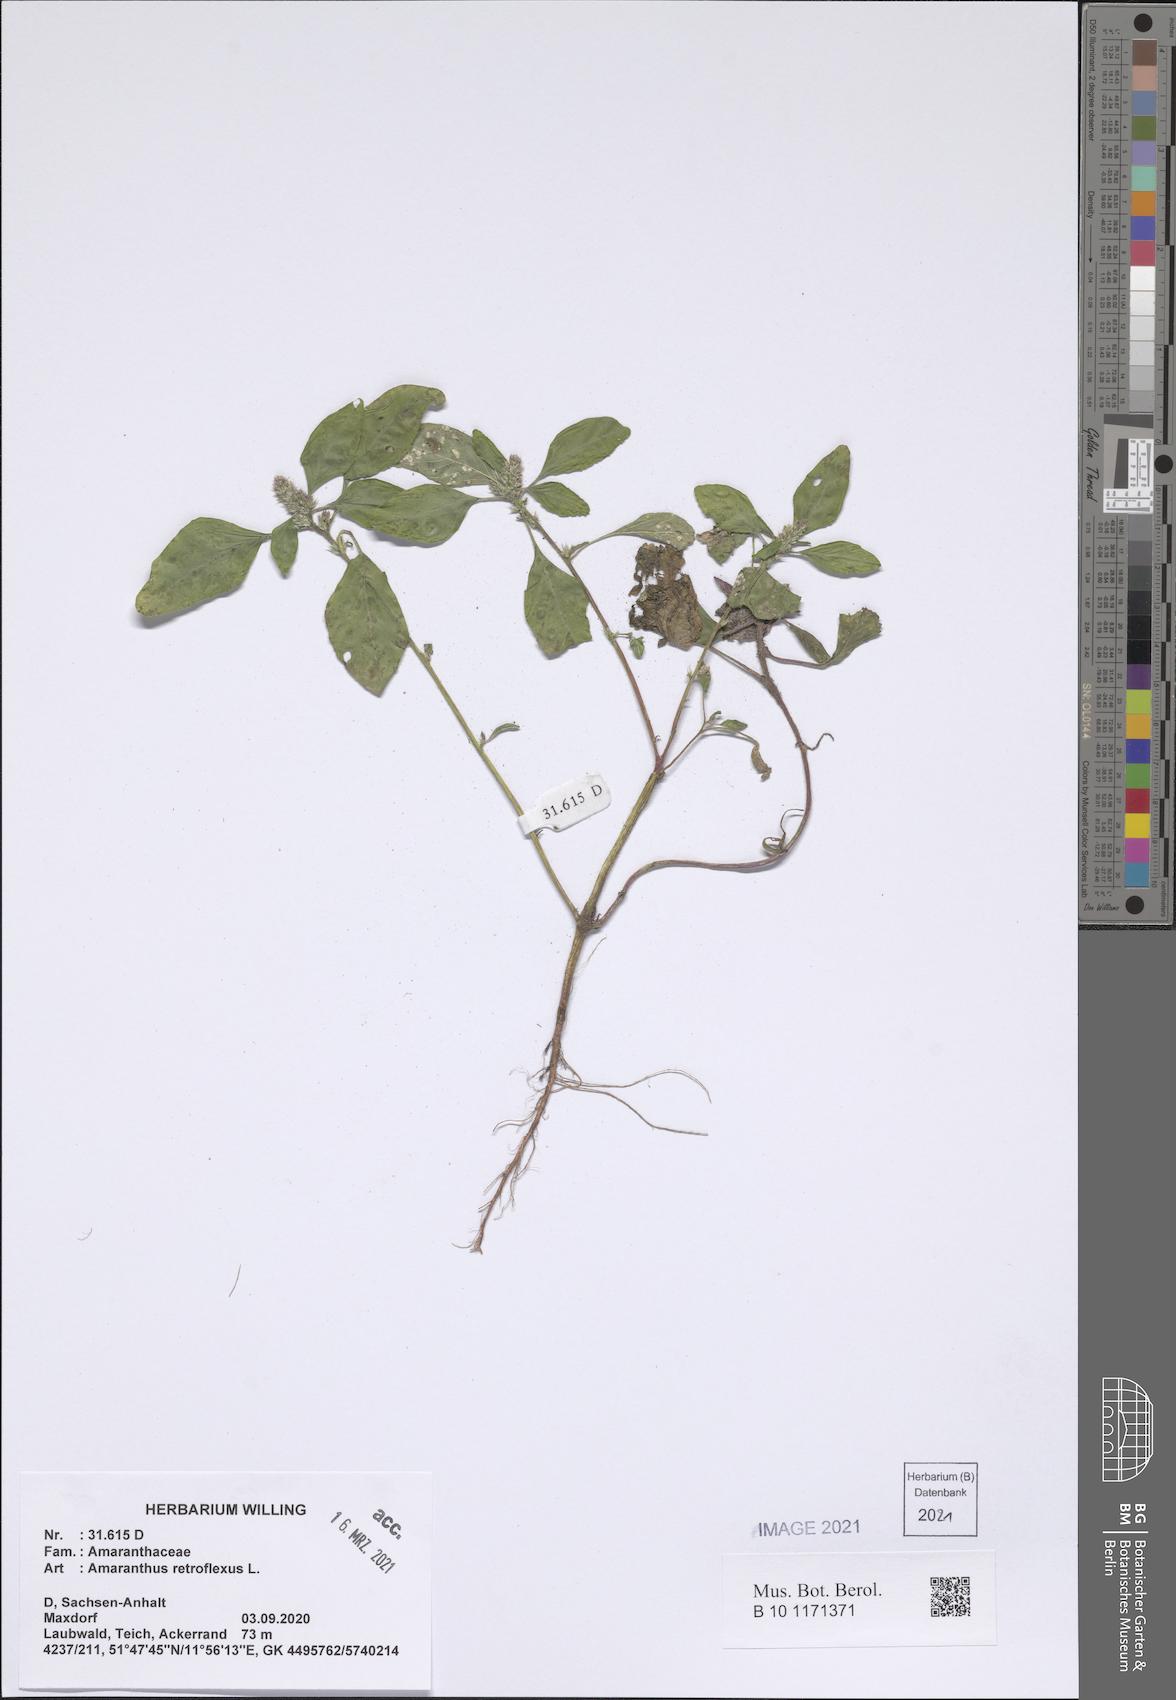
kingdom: Plantae
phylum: Tracheophyta
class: Magnoliopsida
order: Caryophyllales
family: Amaranthaceae
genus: Amaranthus
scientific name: Amaranthus retroflexus
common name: Redroot amaranth
